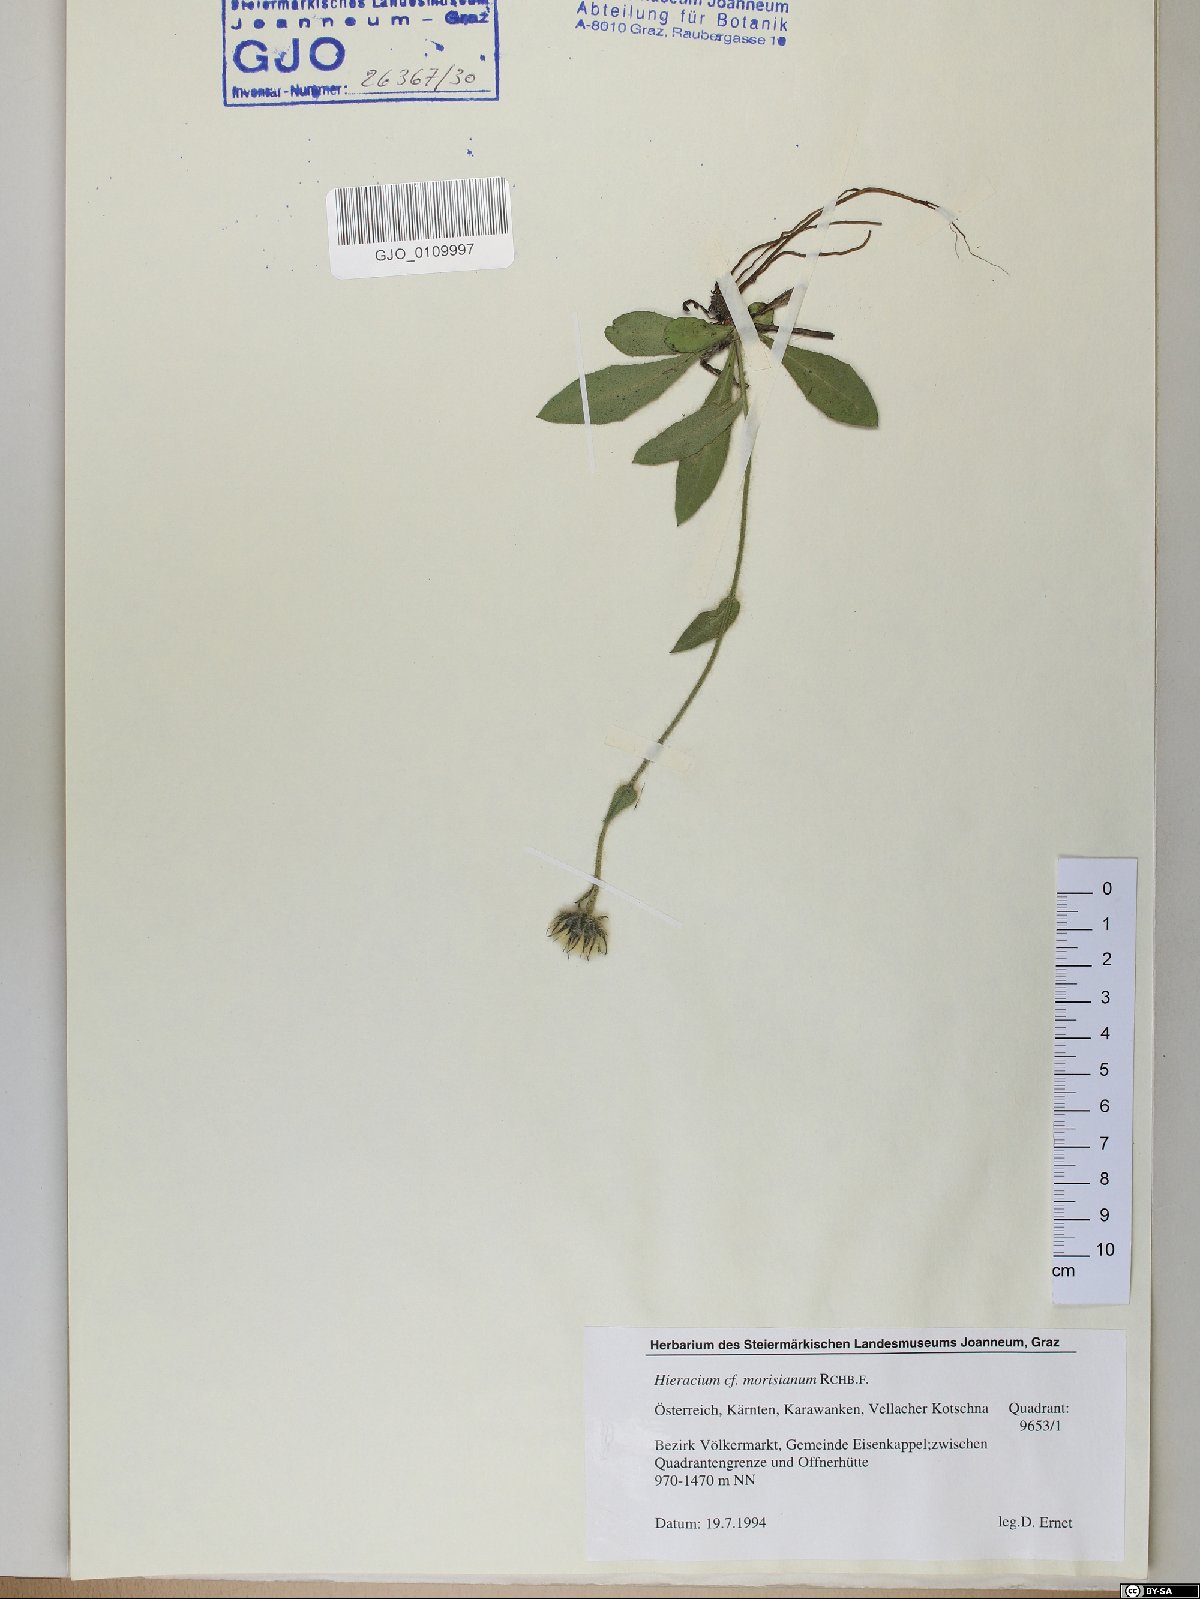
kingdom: Plantae
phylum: Tracheophyta
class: Magnoliopsida
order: Asterales
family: Asteraceae
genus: Hieracium
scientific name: Hieracium pilosum
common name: Fimbriate-pitted hawkweed
